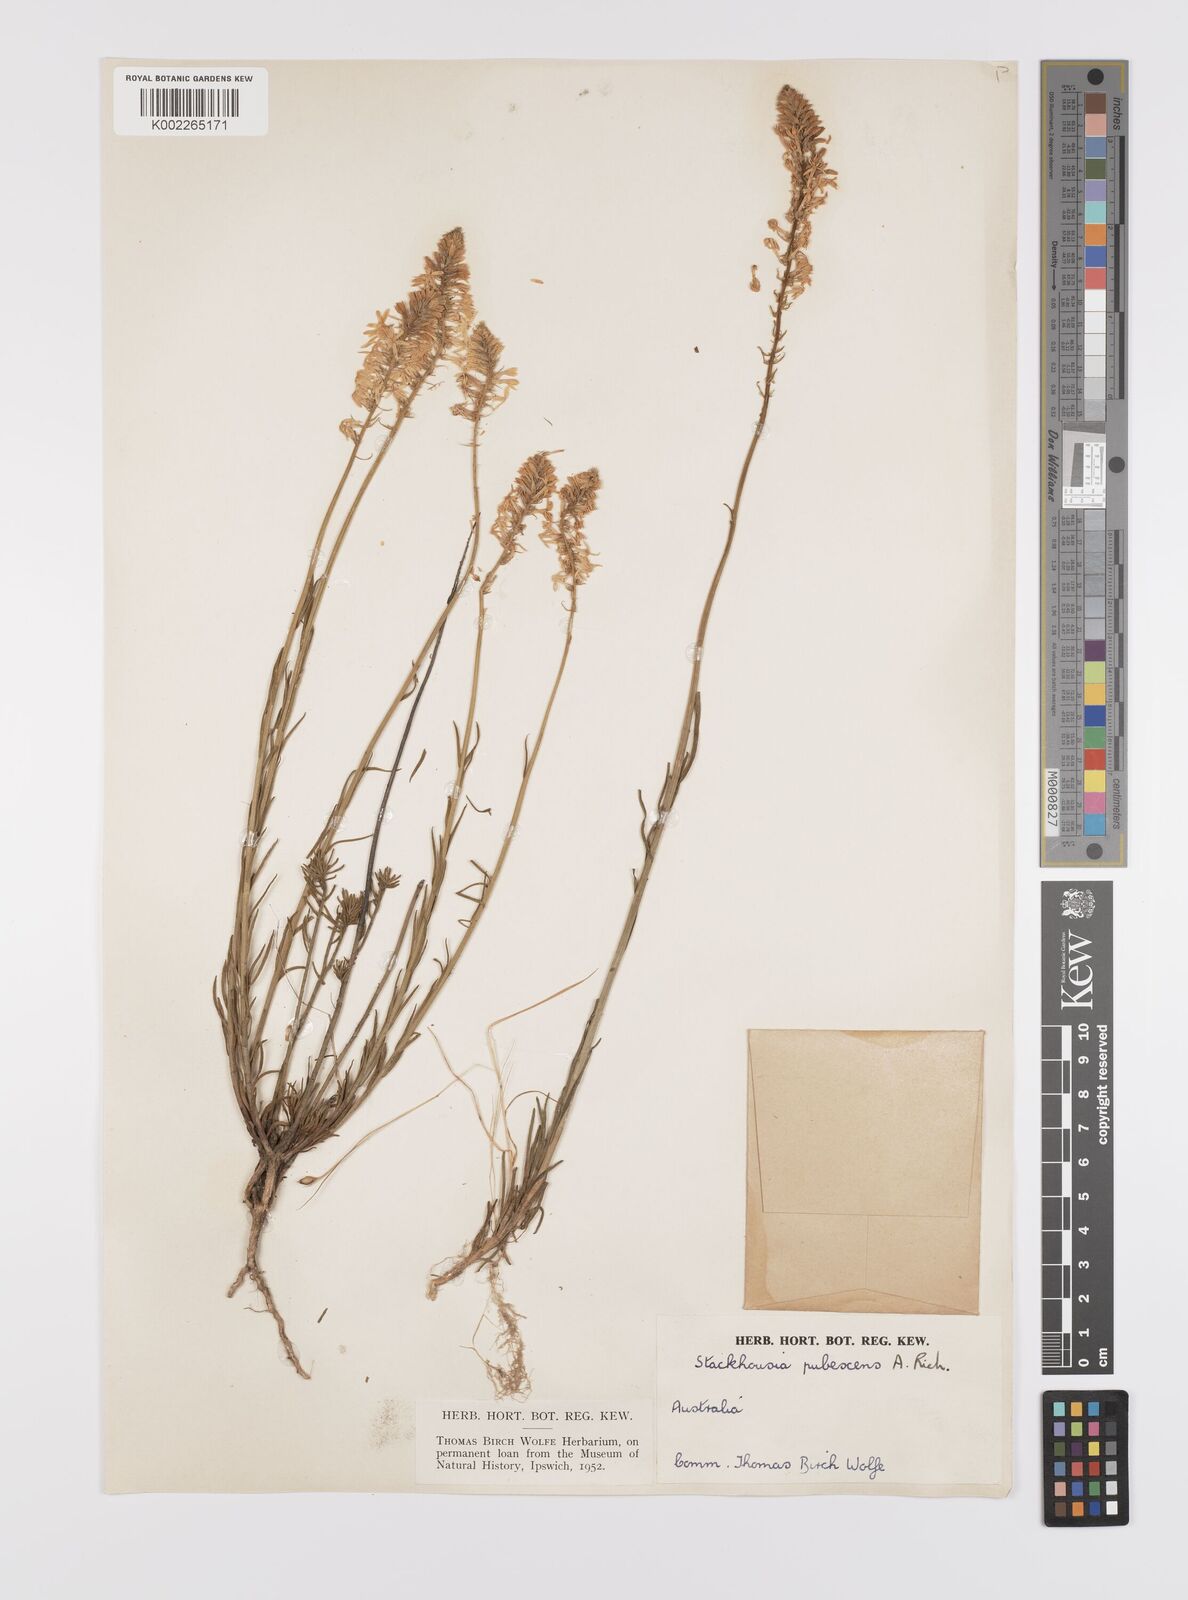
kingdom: Plantae
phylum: Tracheophyta
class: Magnoliopsida
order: Celastrales
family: Celastraceae
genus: Stackhousia
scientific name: Stackhousia monogyna
